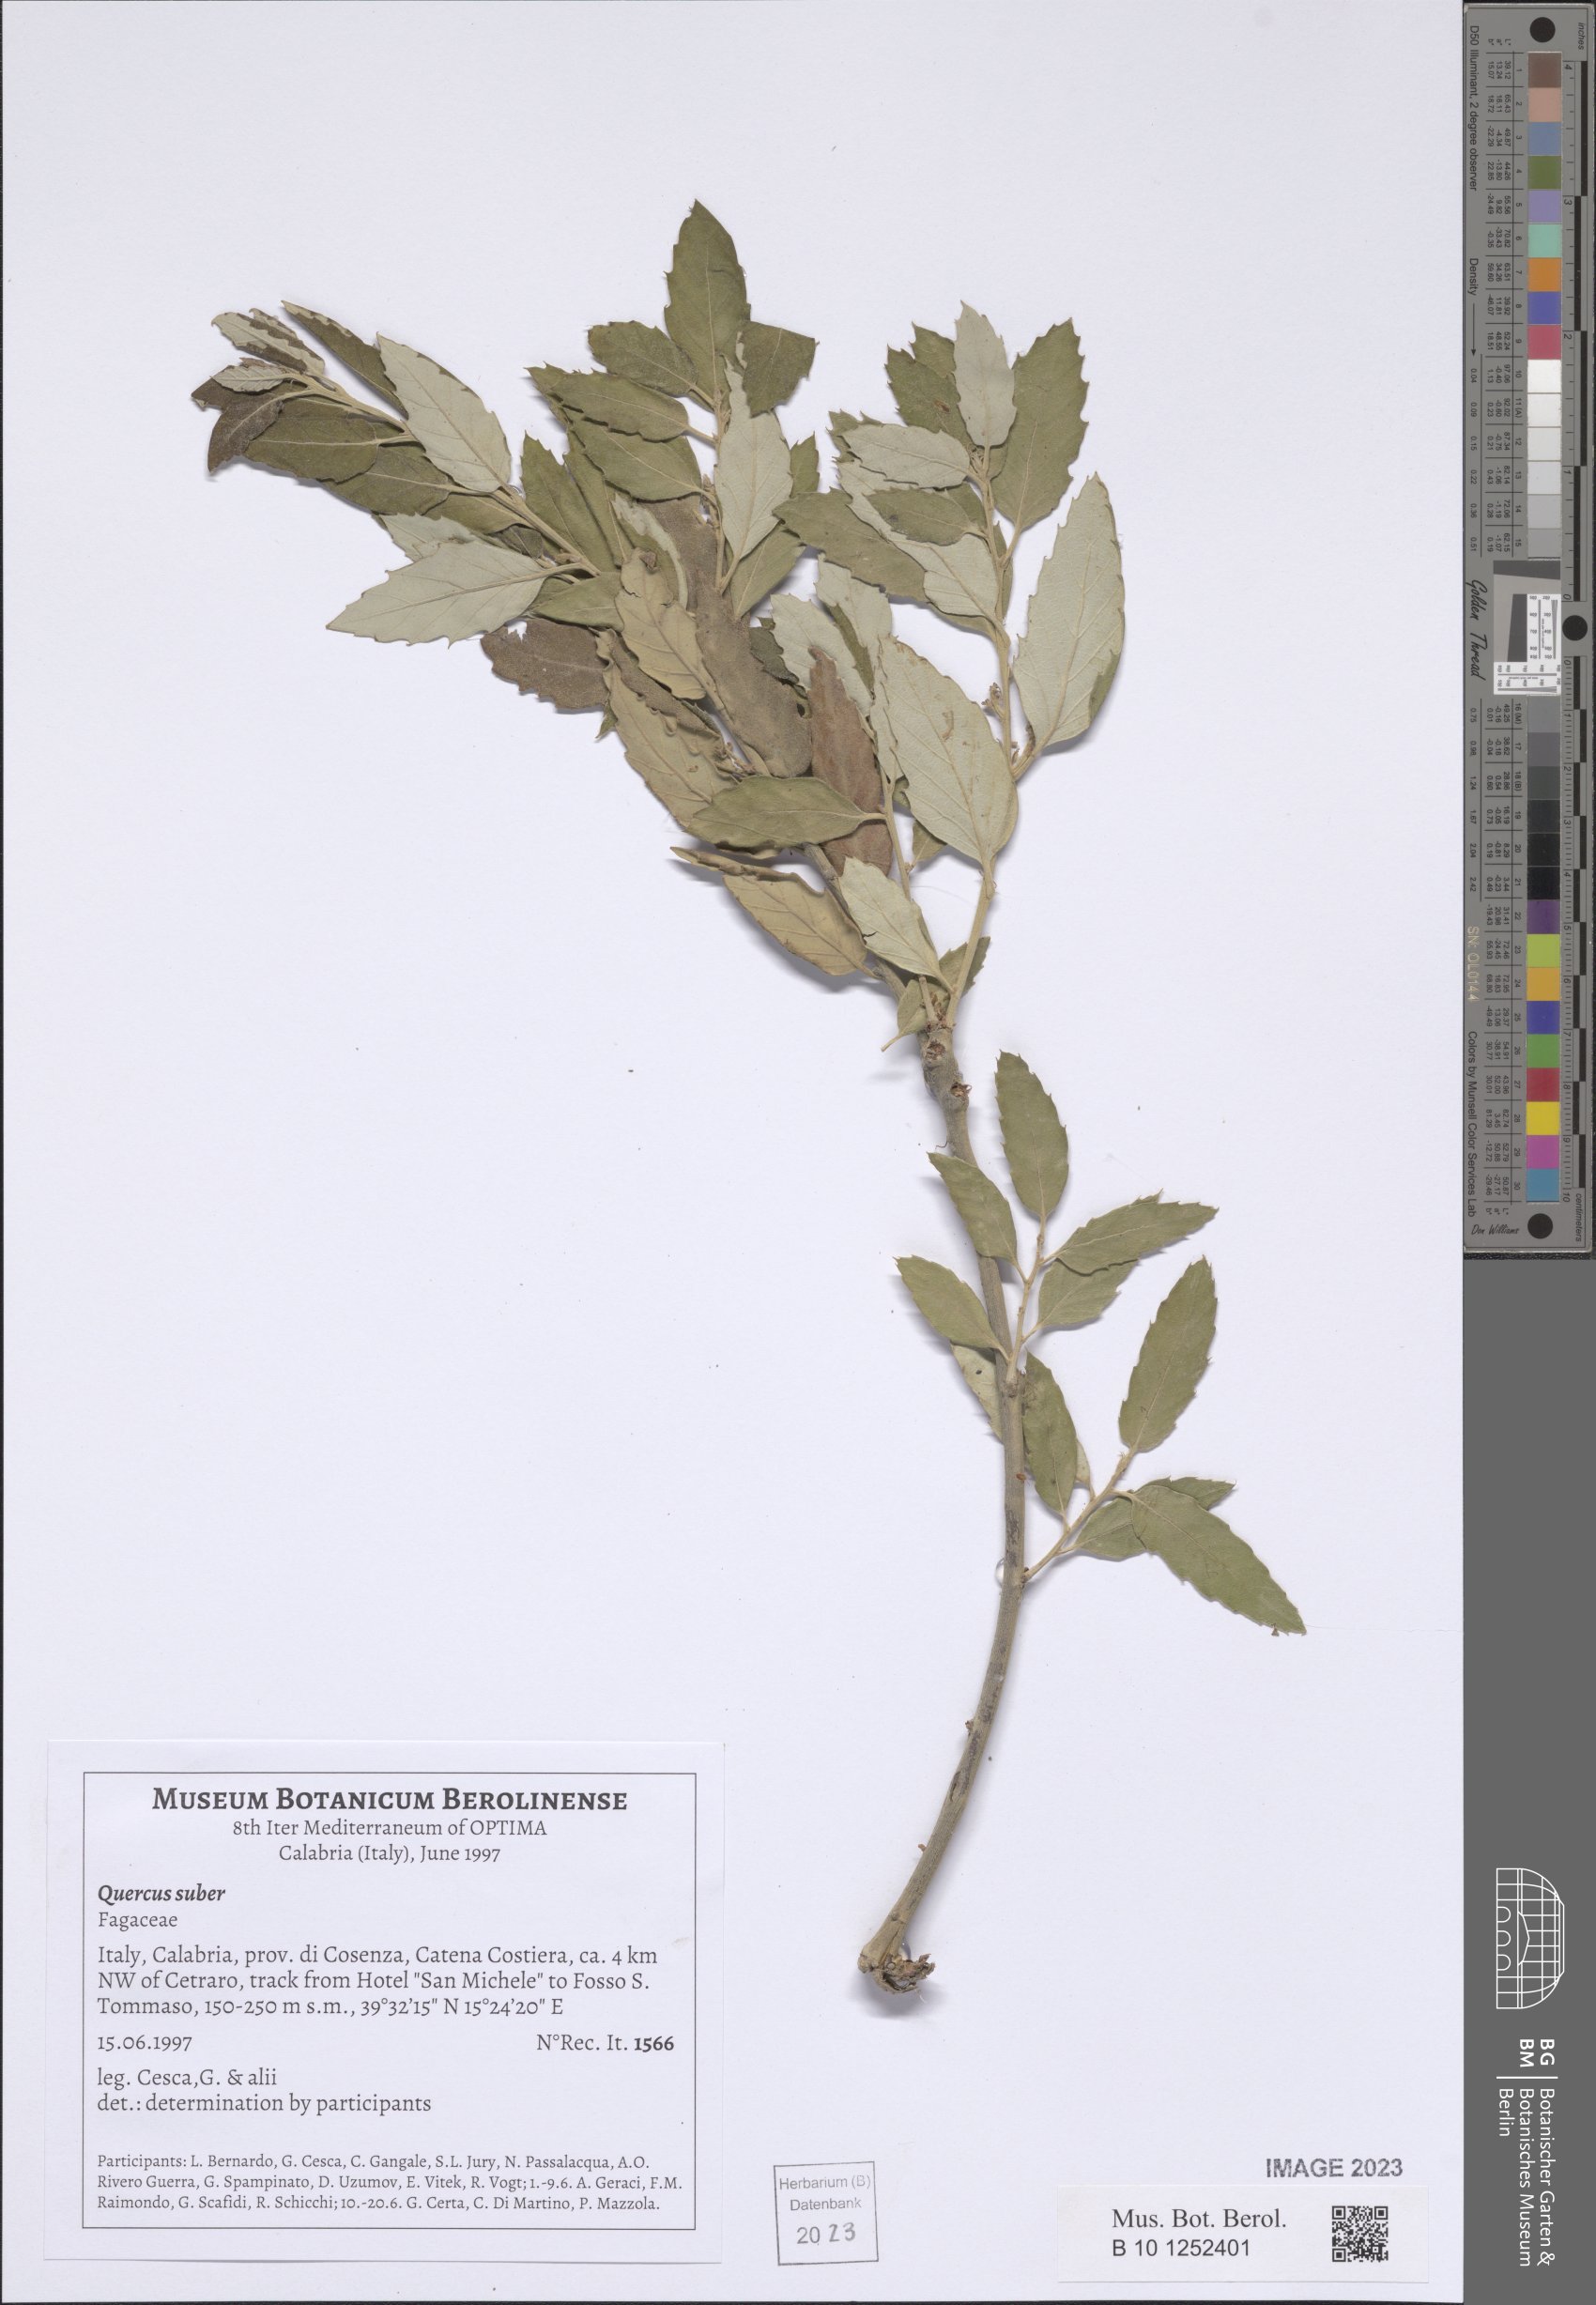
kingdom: Plantae
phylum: Tracheophyta
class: Magnoliopsida
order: Fagales
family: Fagaceae
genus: Quercus
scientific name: Quercus suber
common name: Cork oak
